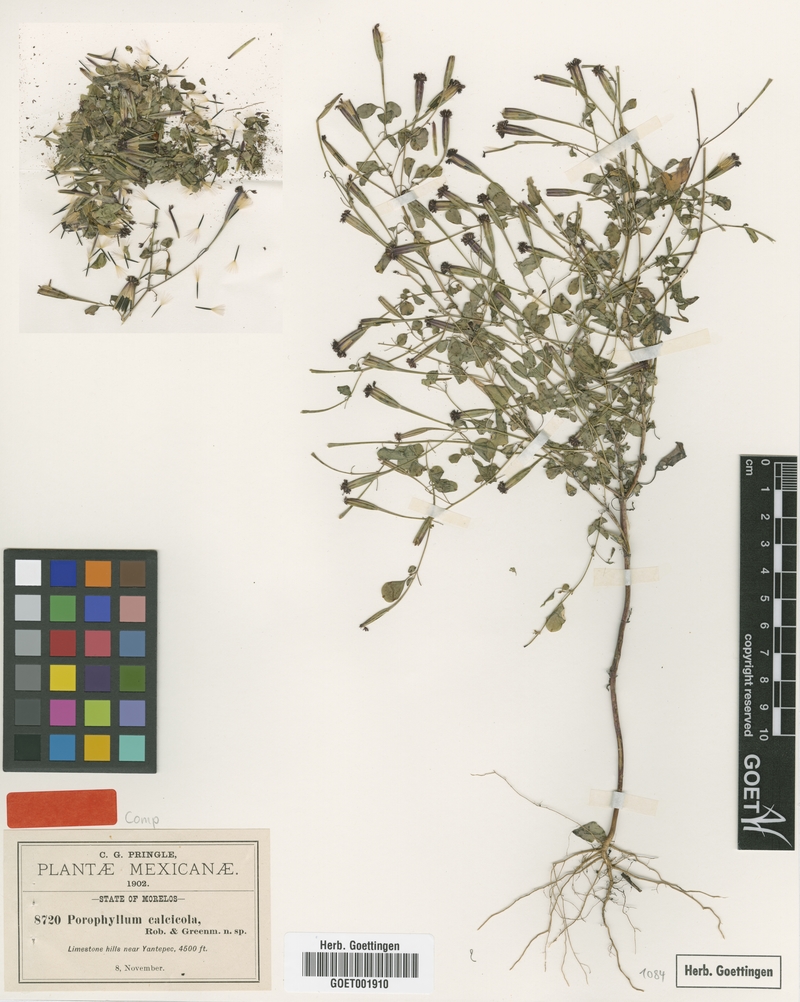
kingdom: Plantae
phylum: Tracheophyta
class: Magnoliopsida
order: Asterales
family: Asteraceae
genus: Porophyllum
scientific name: Porophyllum calcicola
